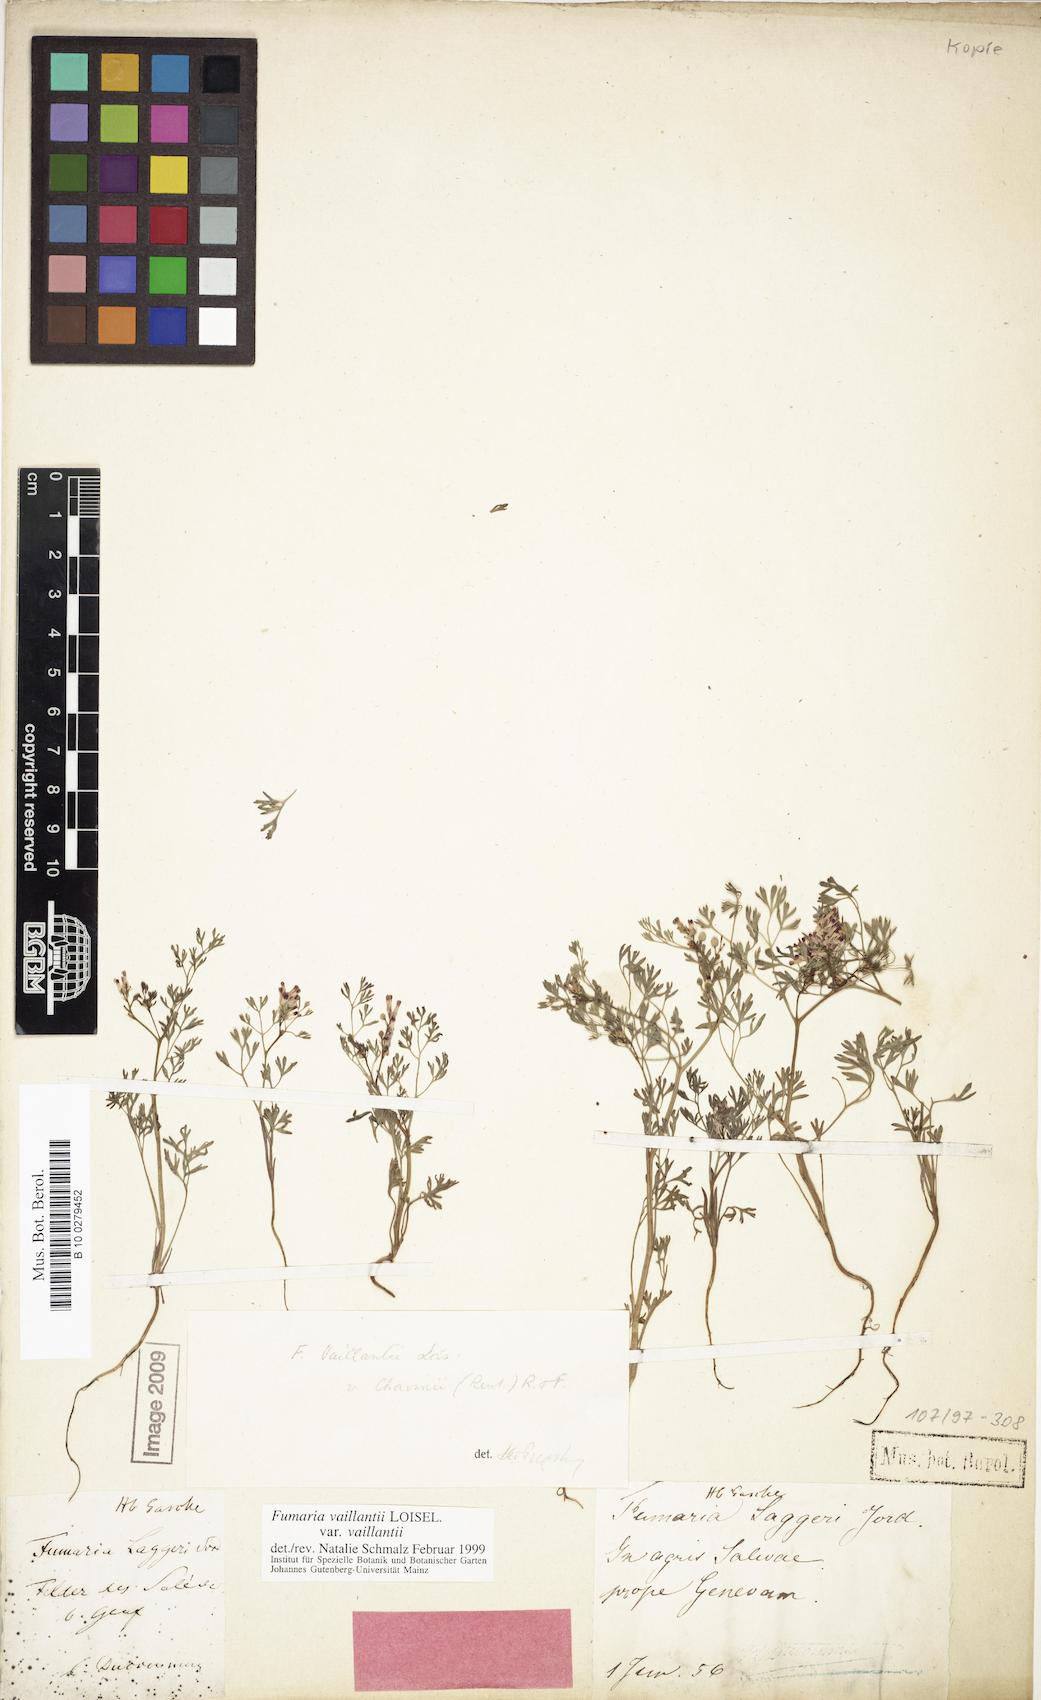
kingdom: Plantae
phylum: Tracheophyta
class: Magnoliopsida
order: Ranunculales
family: Papaveraceae
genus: Fumaria
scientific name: Fumaria vaillantii
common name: Few-flowered fumitory
